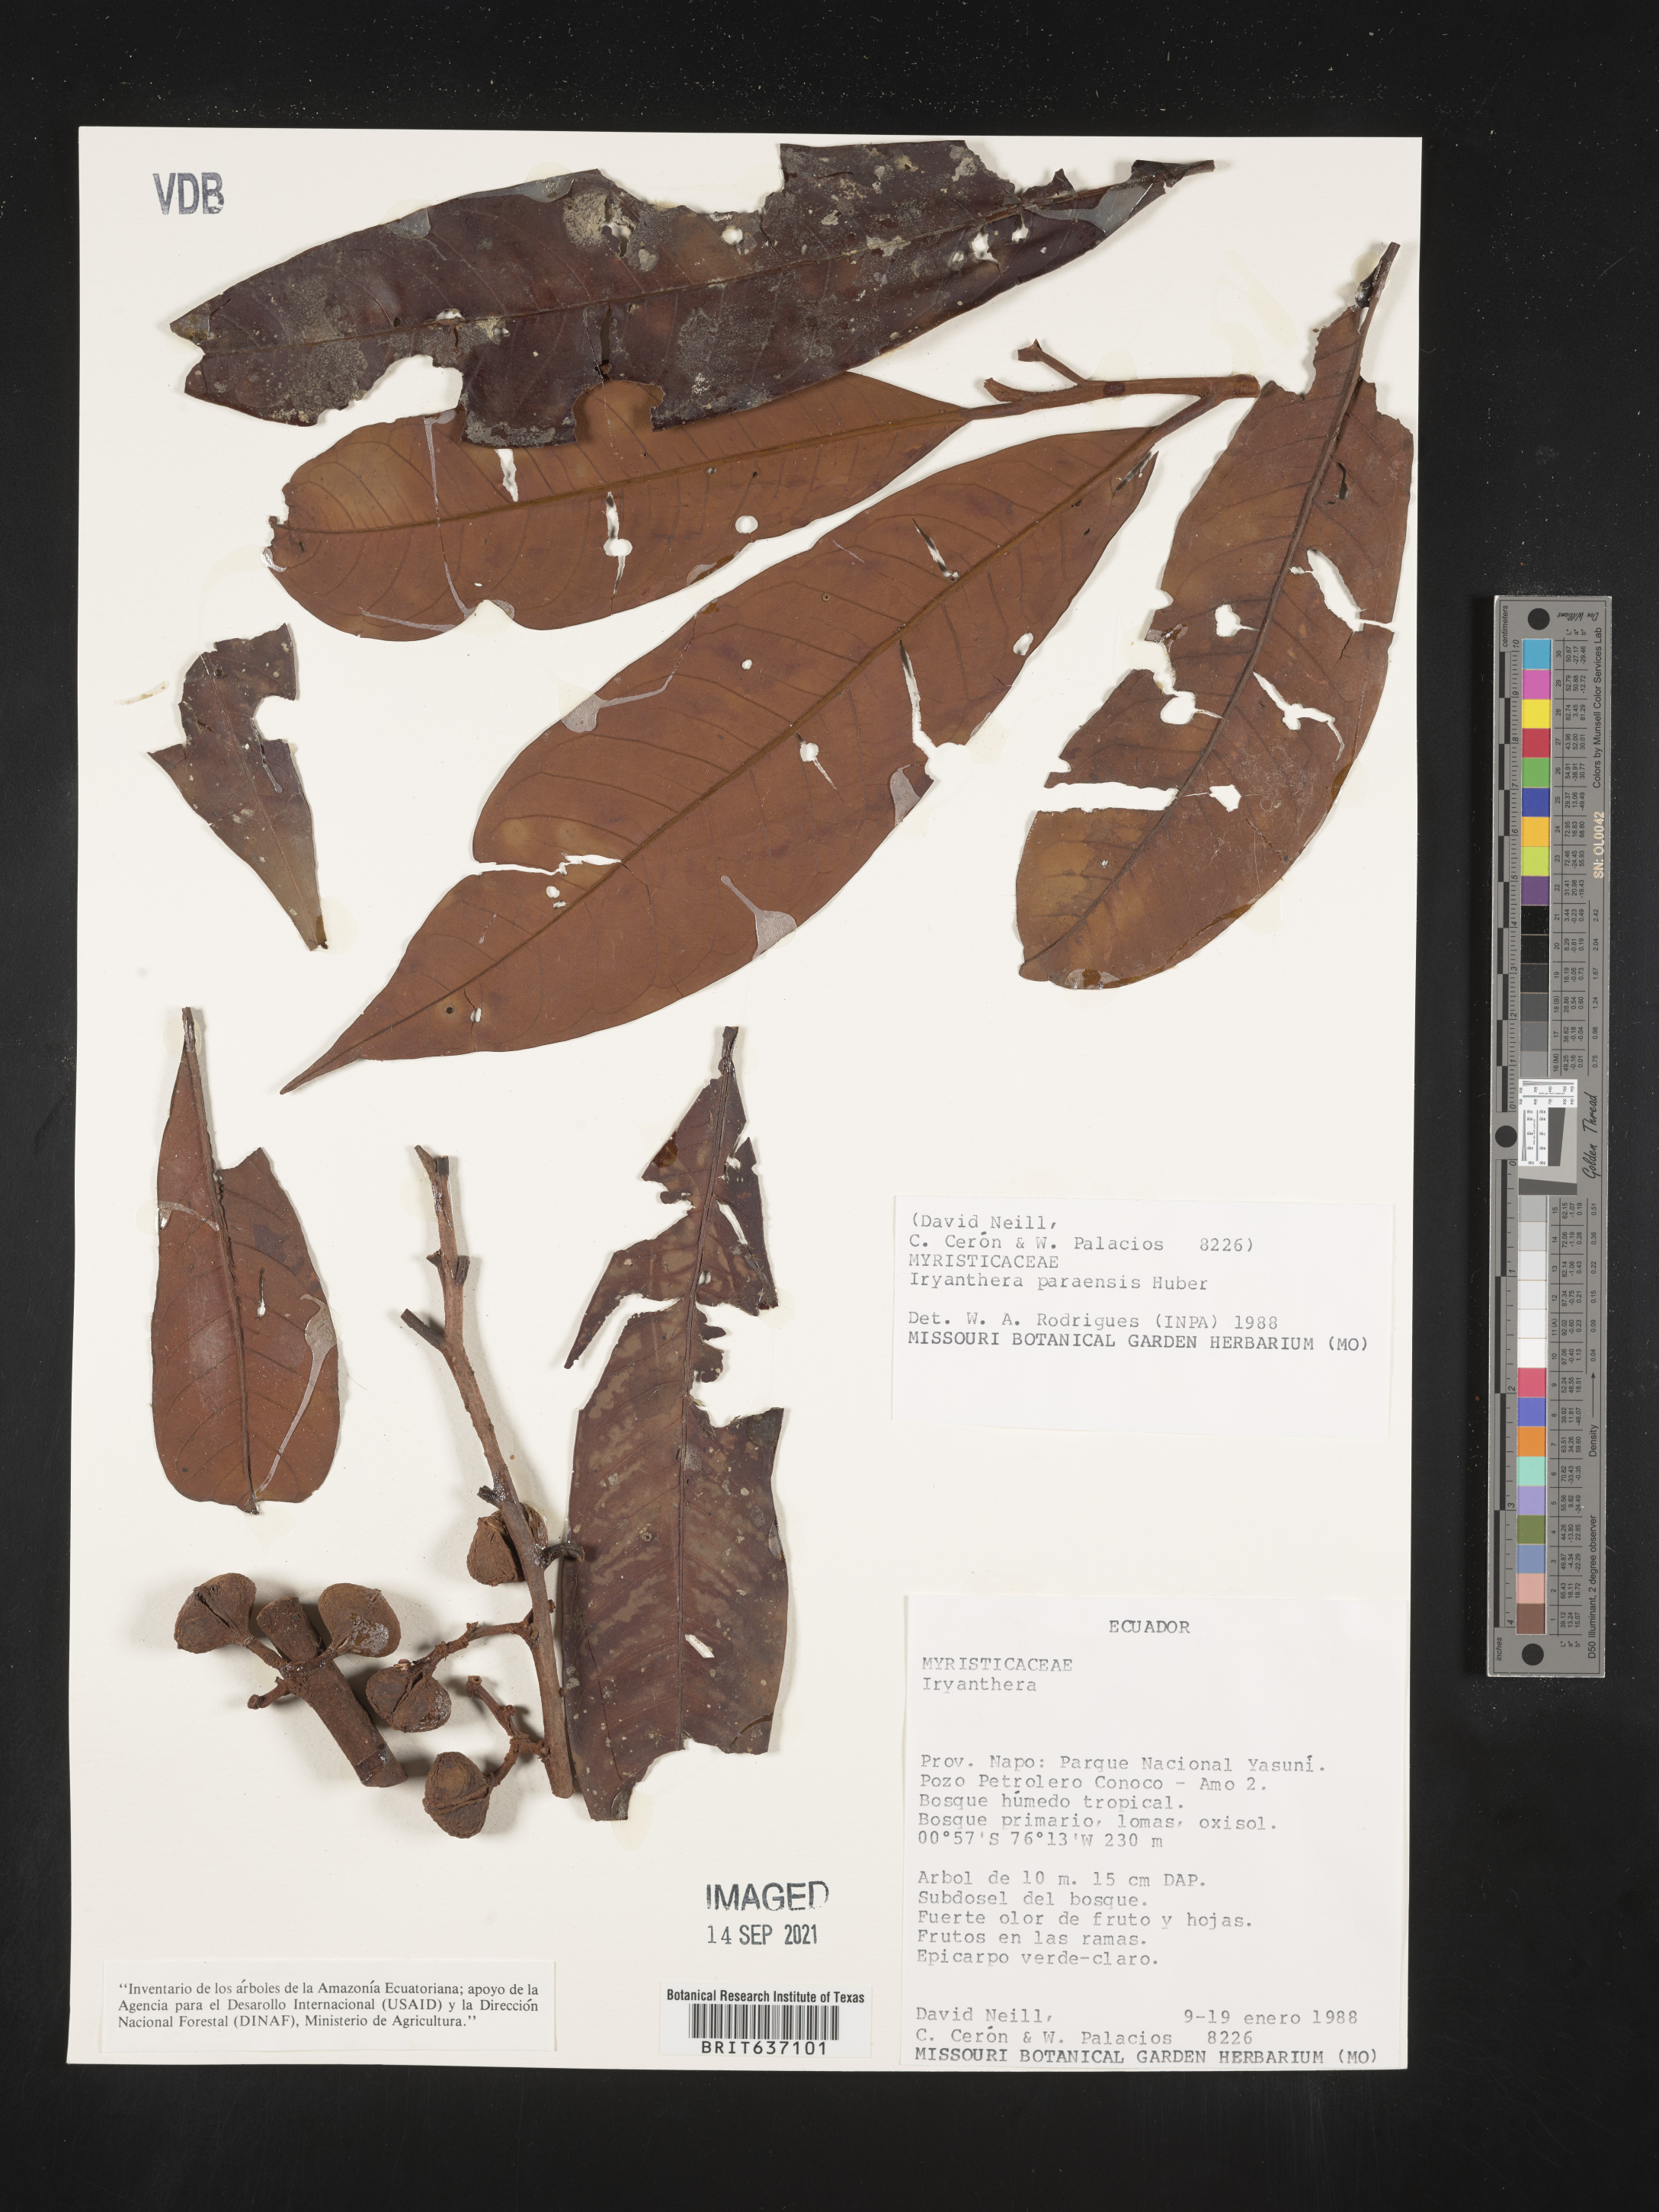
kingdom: Plantae
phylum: Tracheophyta
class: Magnoliopsida
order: Magnoliales
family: Myristicaceae
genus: Iryanthera
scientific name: Iryanthera
